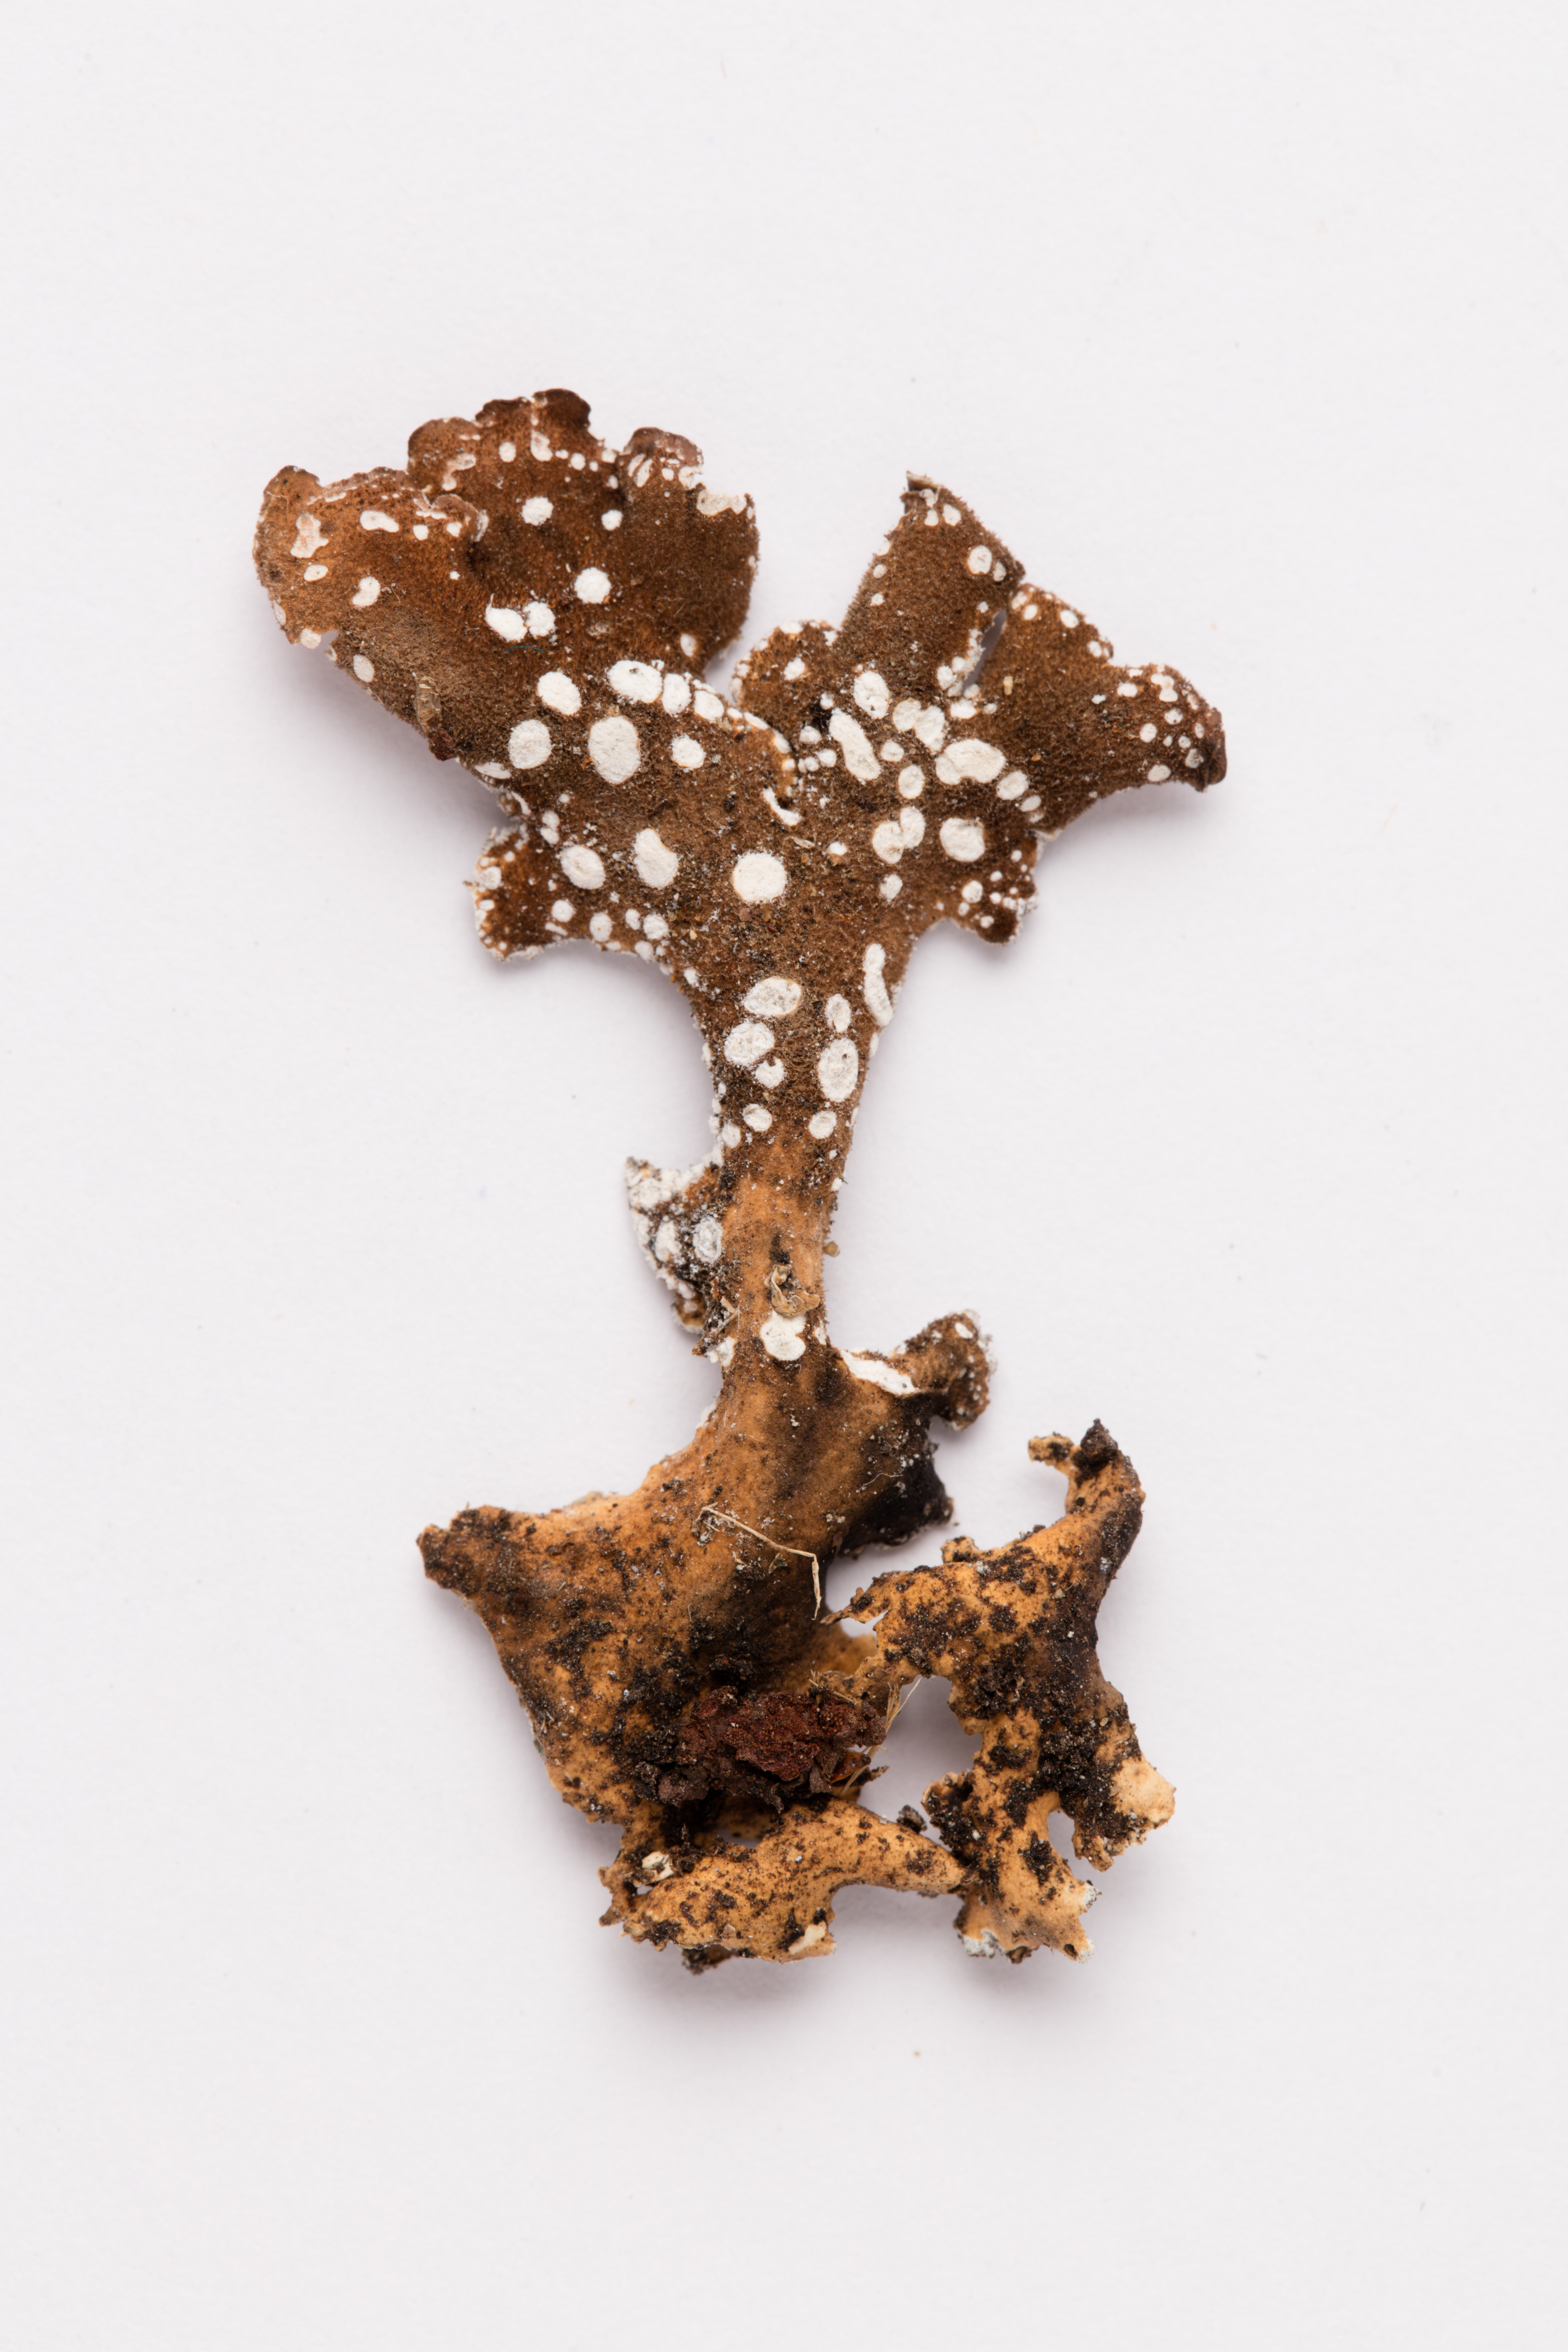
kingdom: Fungi
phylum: Ascomycota
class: Lecanoromycetes
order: Peltigerales
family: Lobariaceae
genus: Pseudocyphellaria
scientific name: Pseudocyphellaria argyracea
